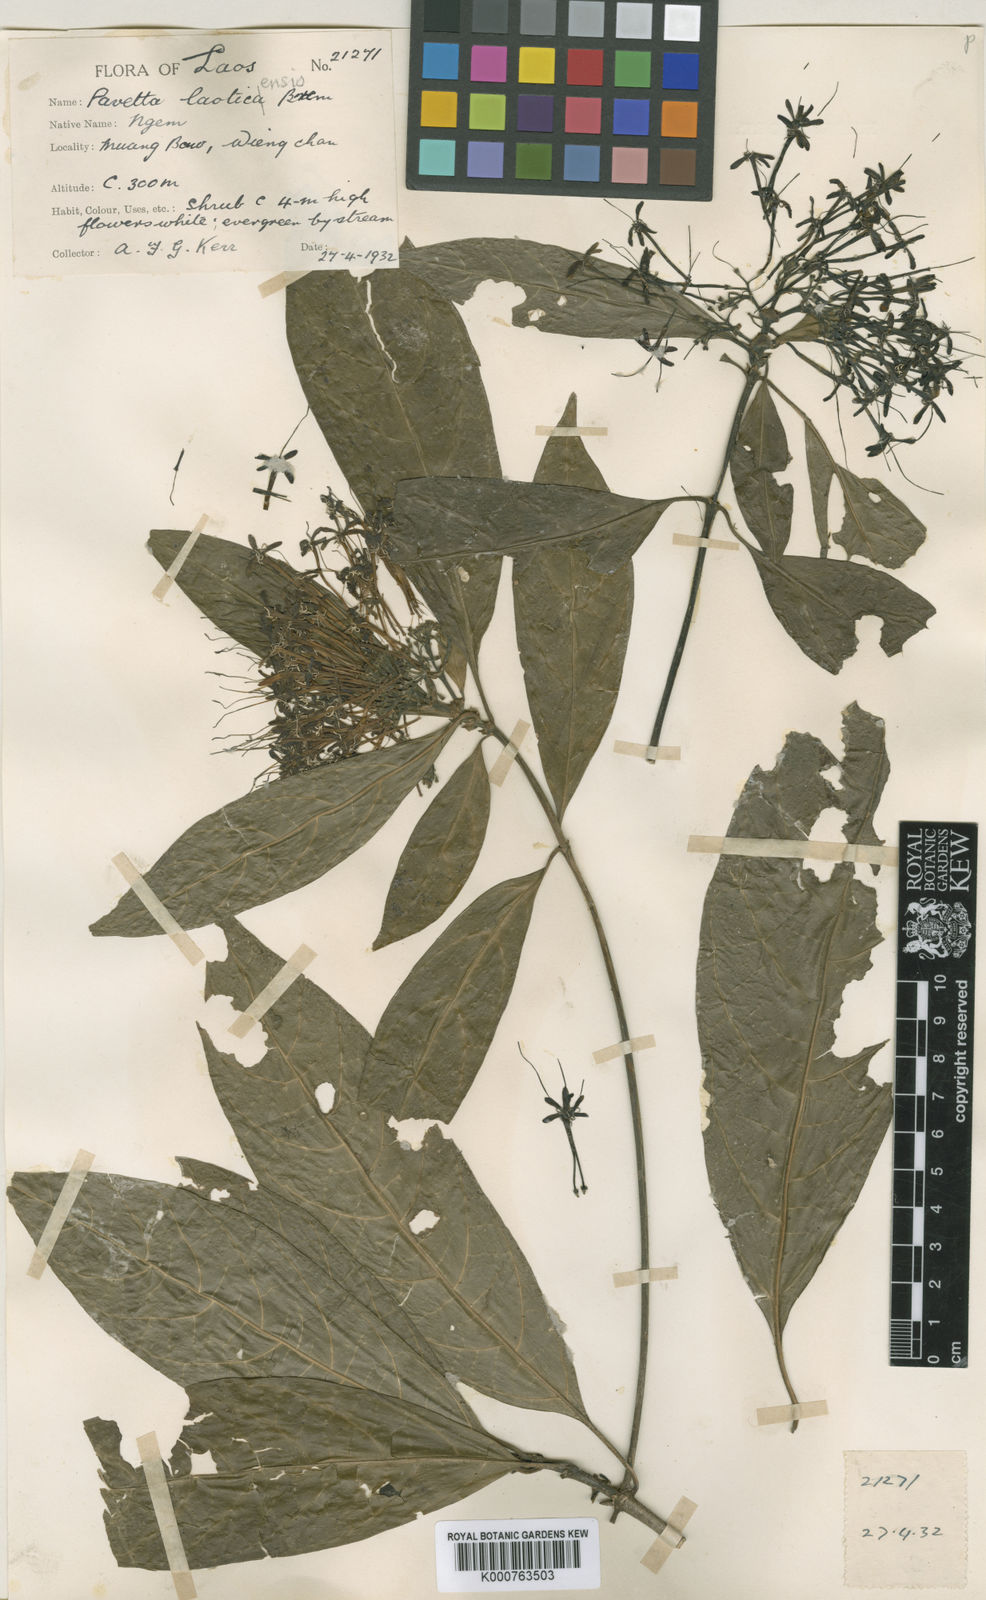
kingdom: Plantae
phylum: Tracheophyta
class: Magnoliopsida
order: Gentianales
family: Rubiaceae
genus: Pavetta
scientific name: Pavetta aspera
